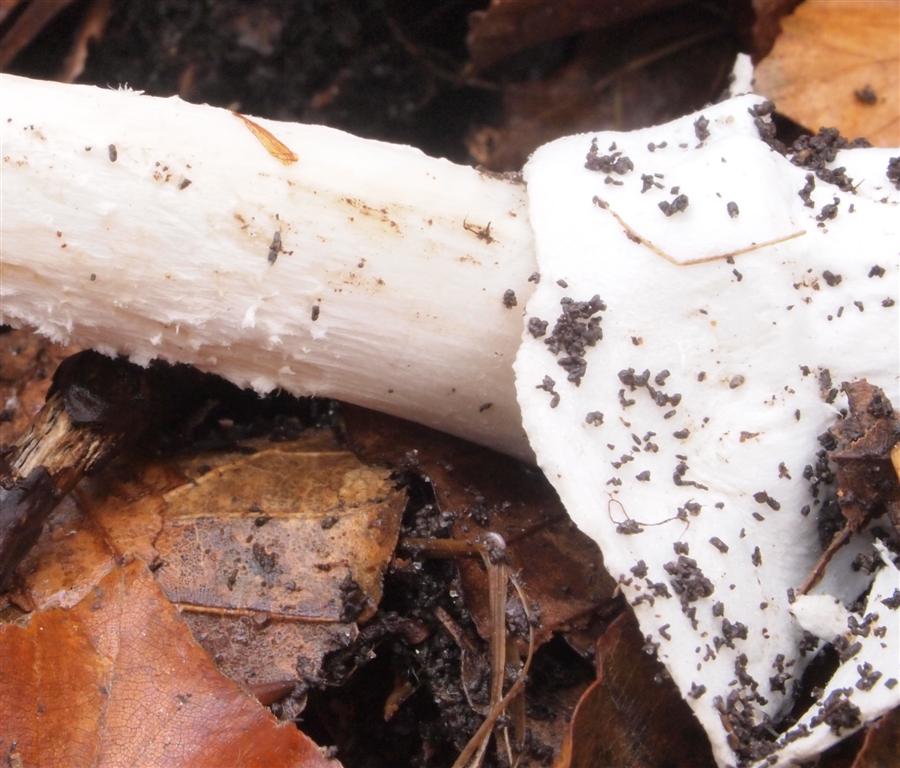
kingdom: Fungi
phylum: Basidiomycota
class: Agaricomycetes
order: Agaricales
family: Amanitaceae
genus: Amanita
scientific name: Amanita vaginata
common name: grå kam-fluesvamp
